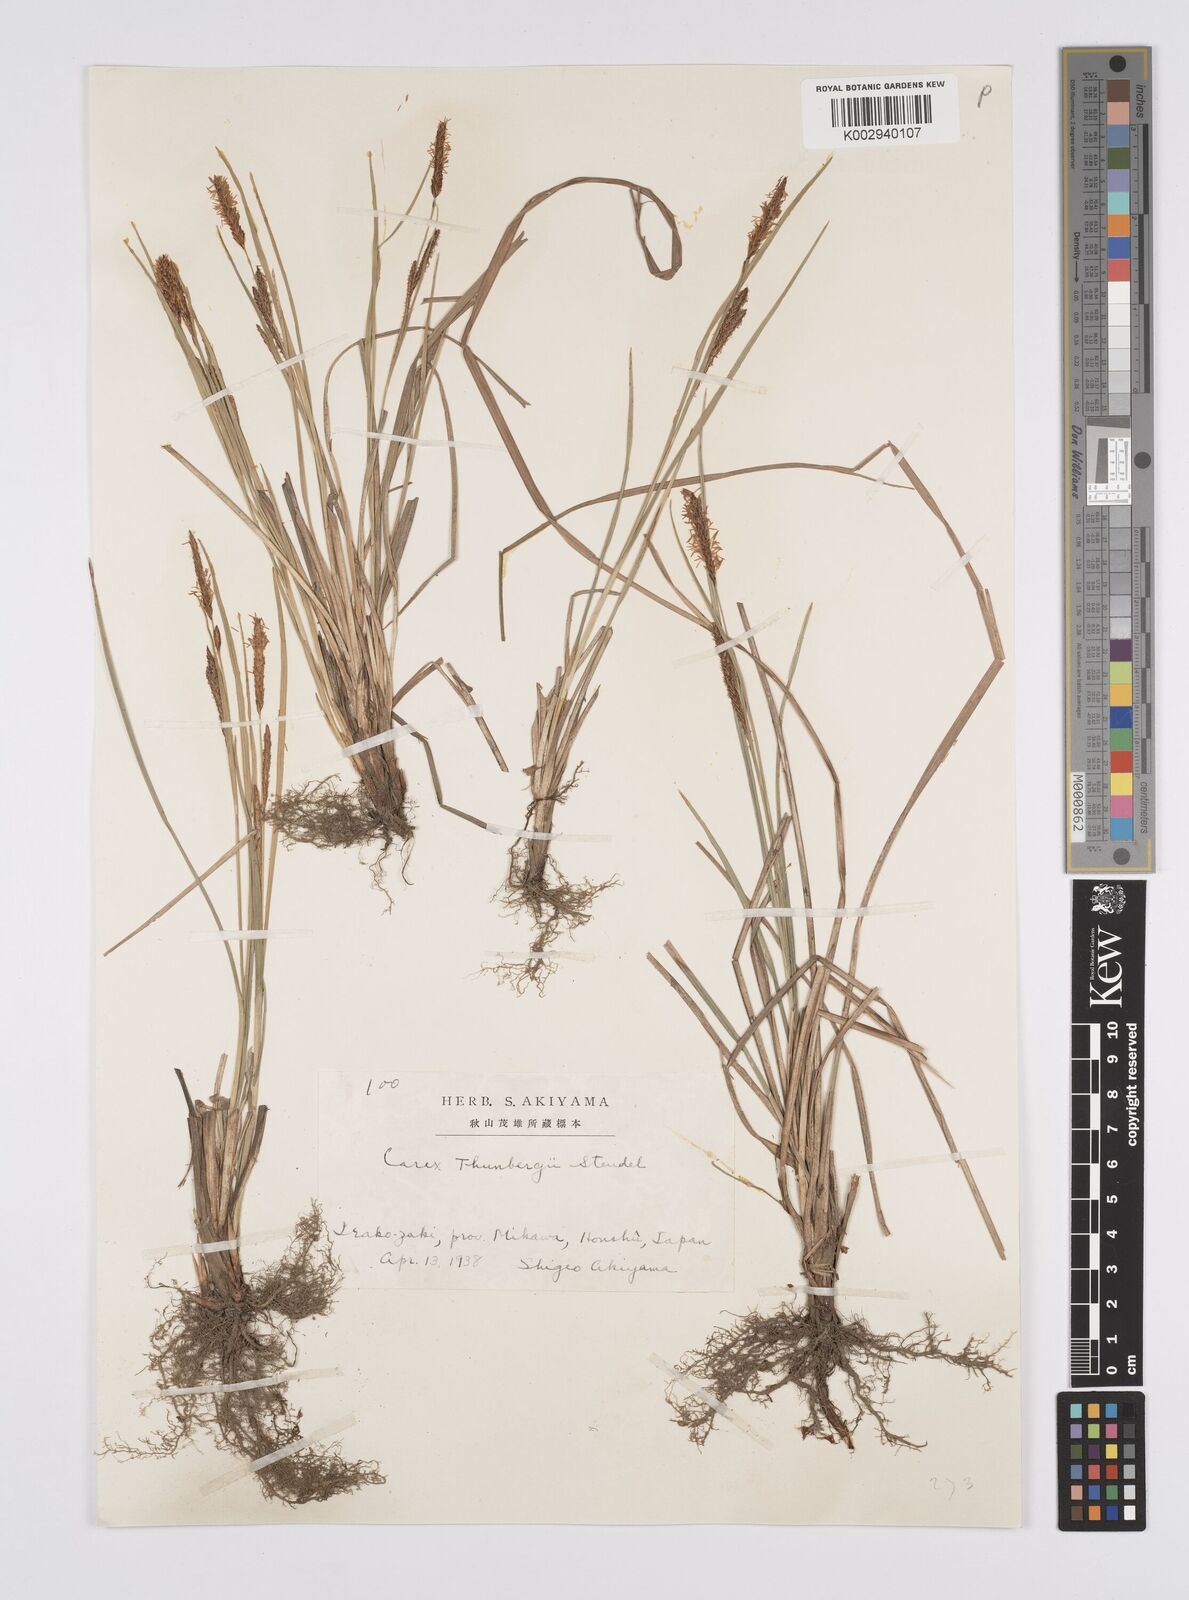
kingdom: Plantae
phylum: Tracheophyta
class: Liliopsida
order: Poales
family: Cyperaceae
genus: Carex
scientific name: Carex thunbergii
